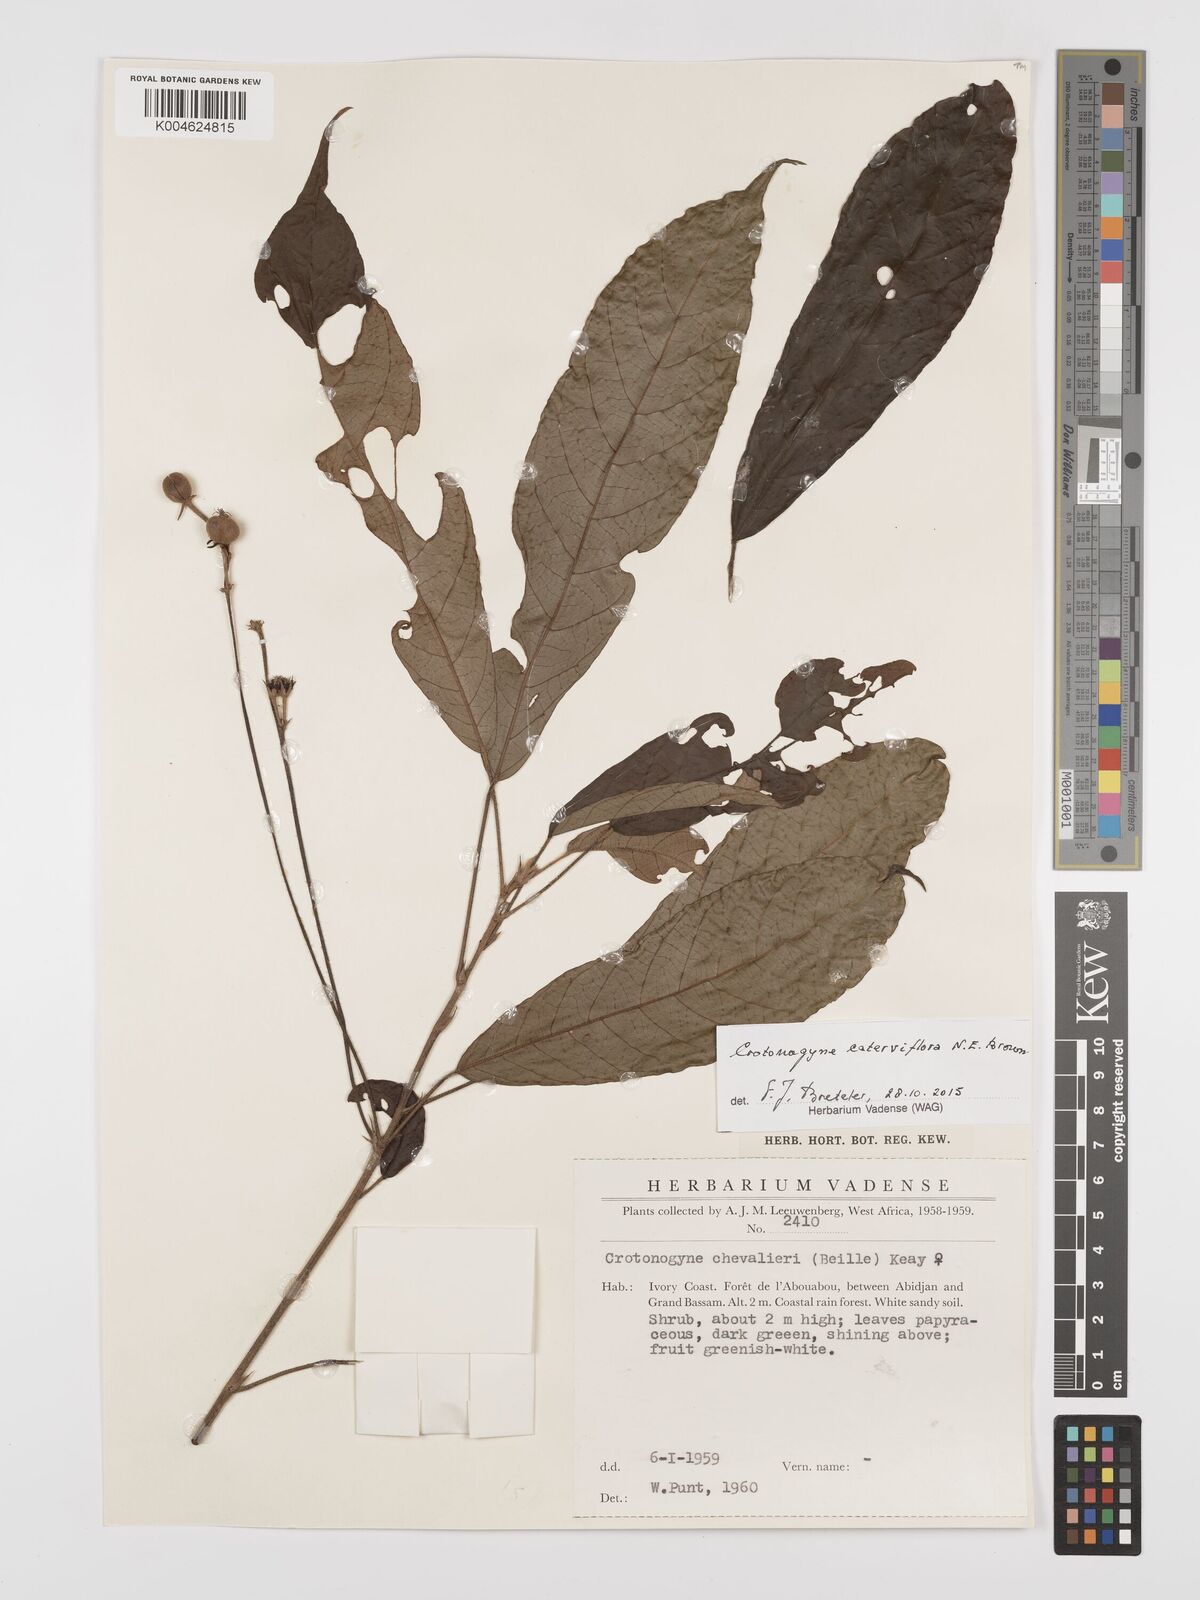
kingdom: Plantae
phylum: Tracheophyta
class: Magnoliopsida
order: Malpighiales
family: Euphorbiaceae
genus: Crotonogyne
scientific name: Crotonogyne caterviflora
